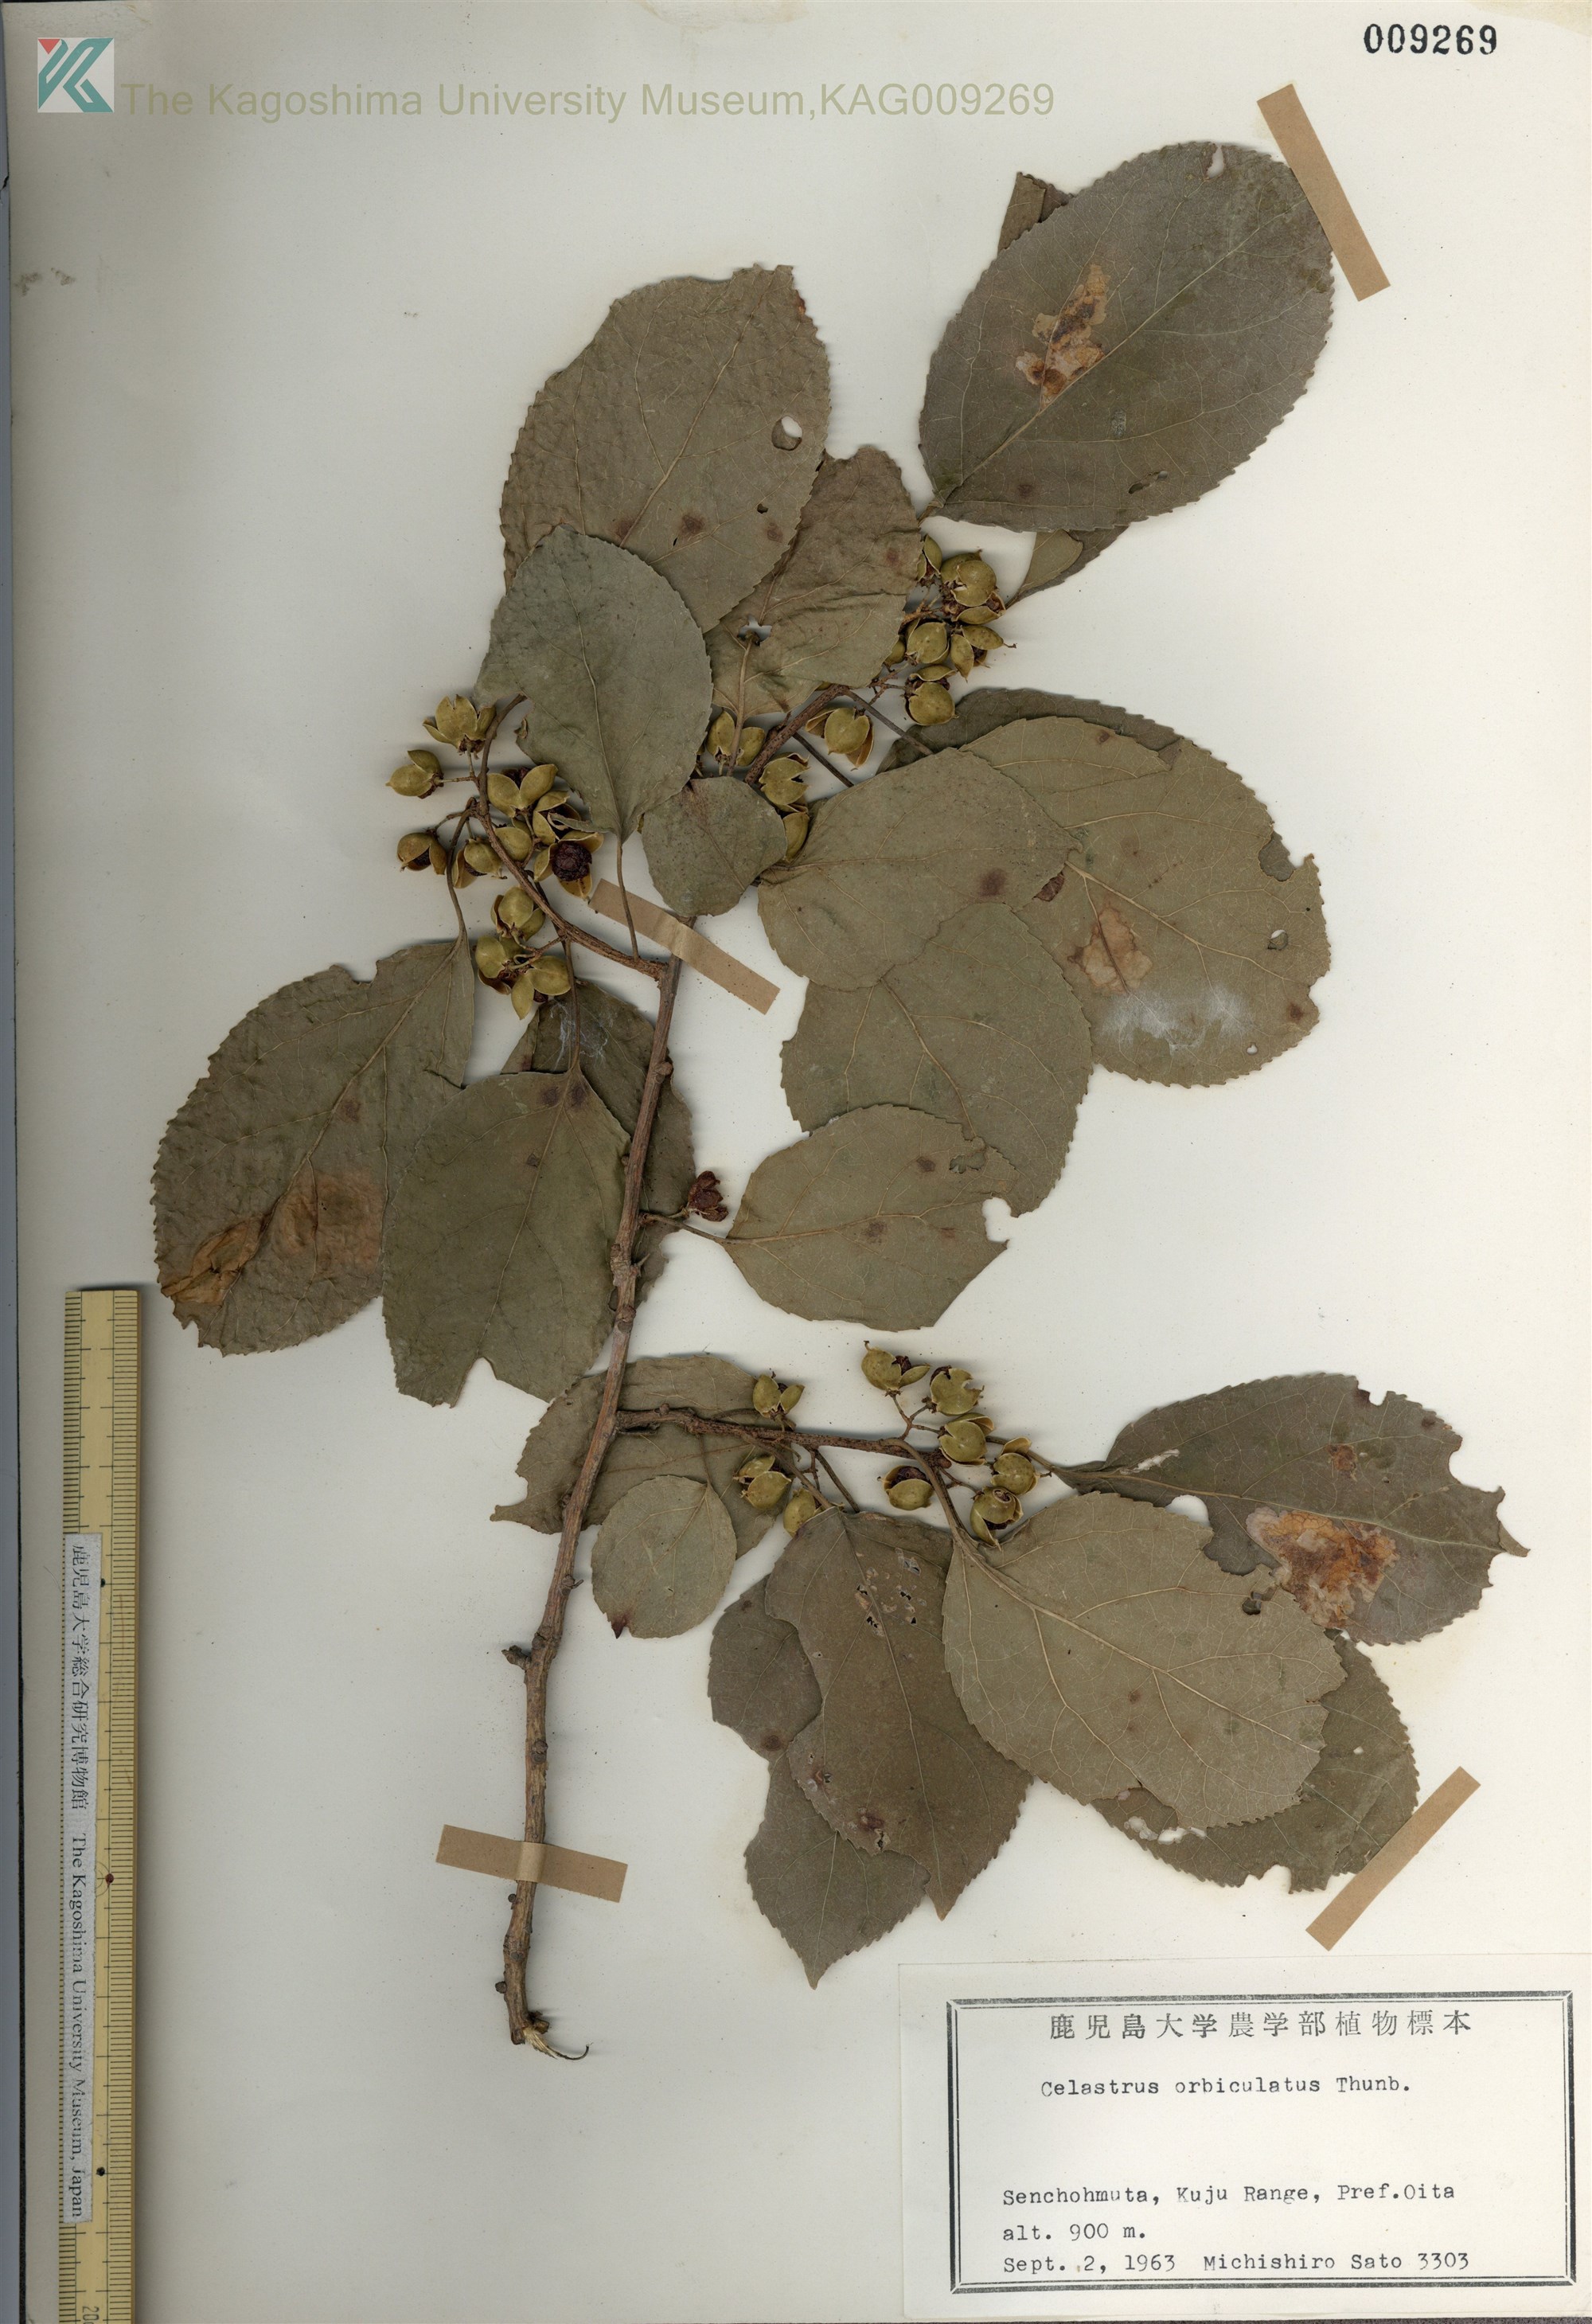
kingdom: Plantae
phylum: Tracheophyta
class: Magnoliopsida
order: Celastrales
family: Celastraceae
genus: Celastrus
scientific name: Celastrus orbiculatus
